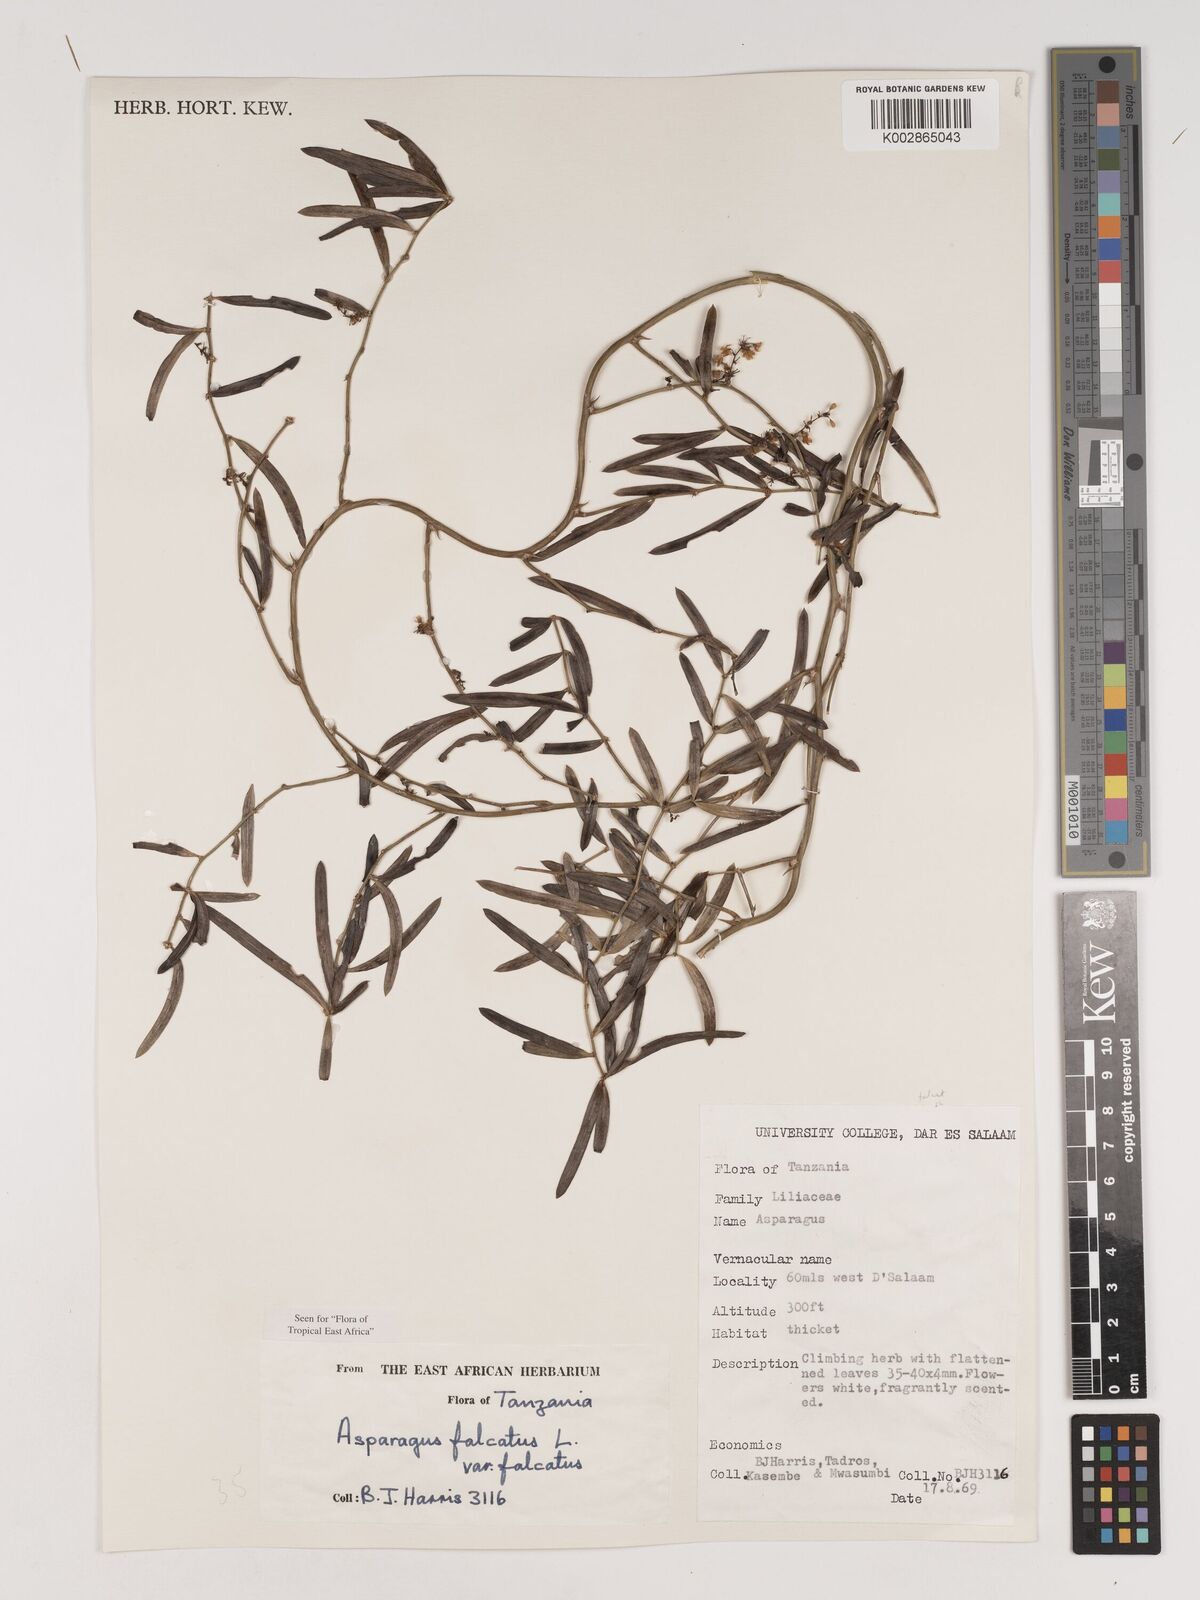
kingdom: Plantae
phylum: Tracheophyta
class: Liliopsida
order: Asparagales
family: Asparagaceae
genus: Asparagus
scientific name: Asparagus falcatus
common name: Asparagus
